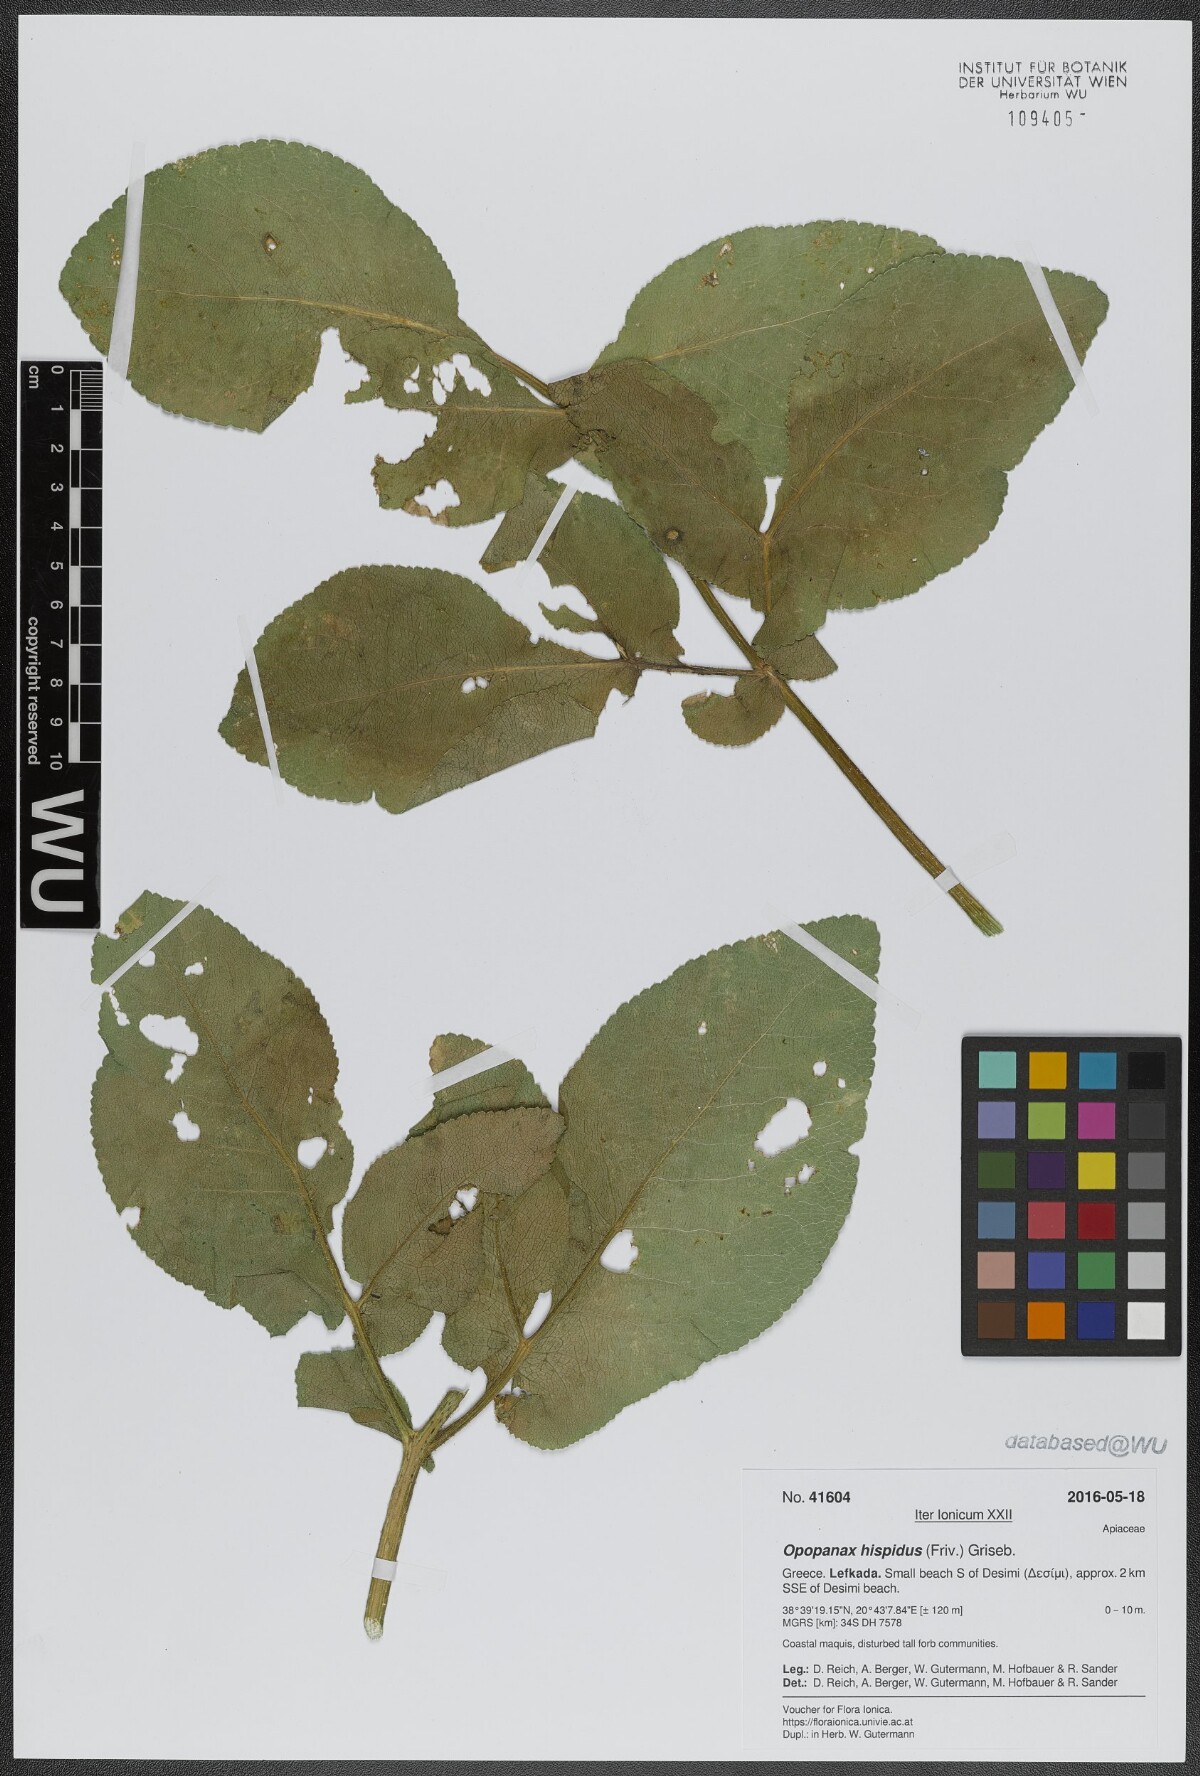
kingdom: Plantae
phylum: Tracheophyta
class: Magnoliopsida
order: Apiales
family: Apiaceae
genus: Opopanax
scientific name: Opopanax hispidus
